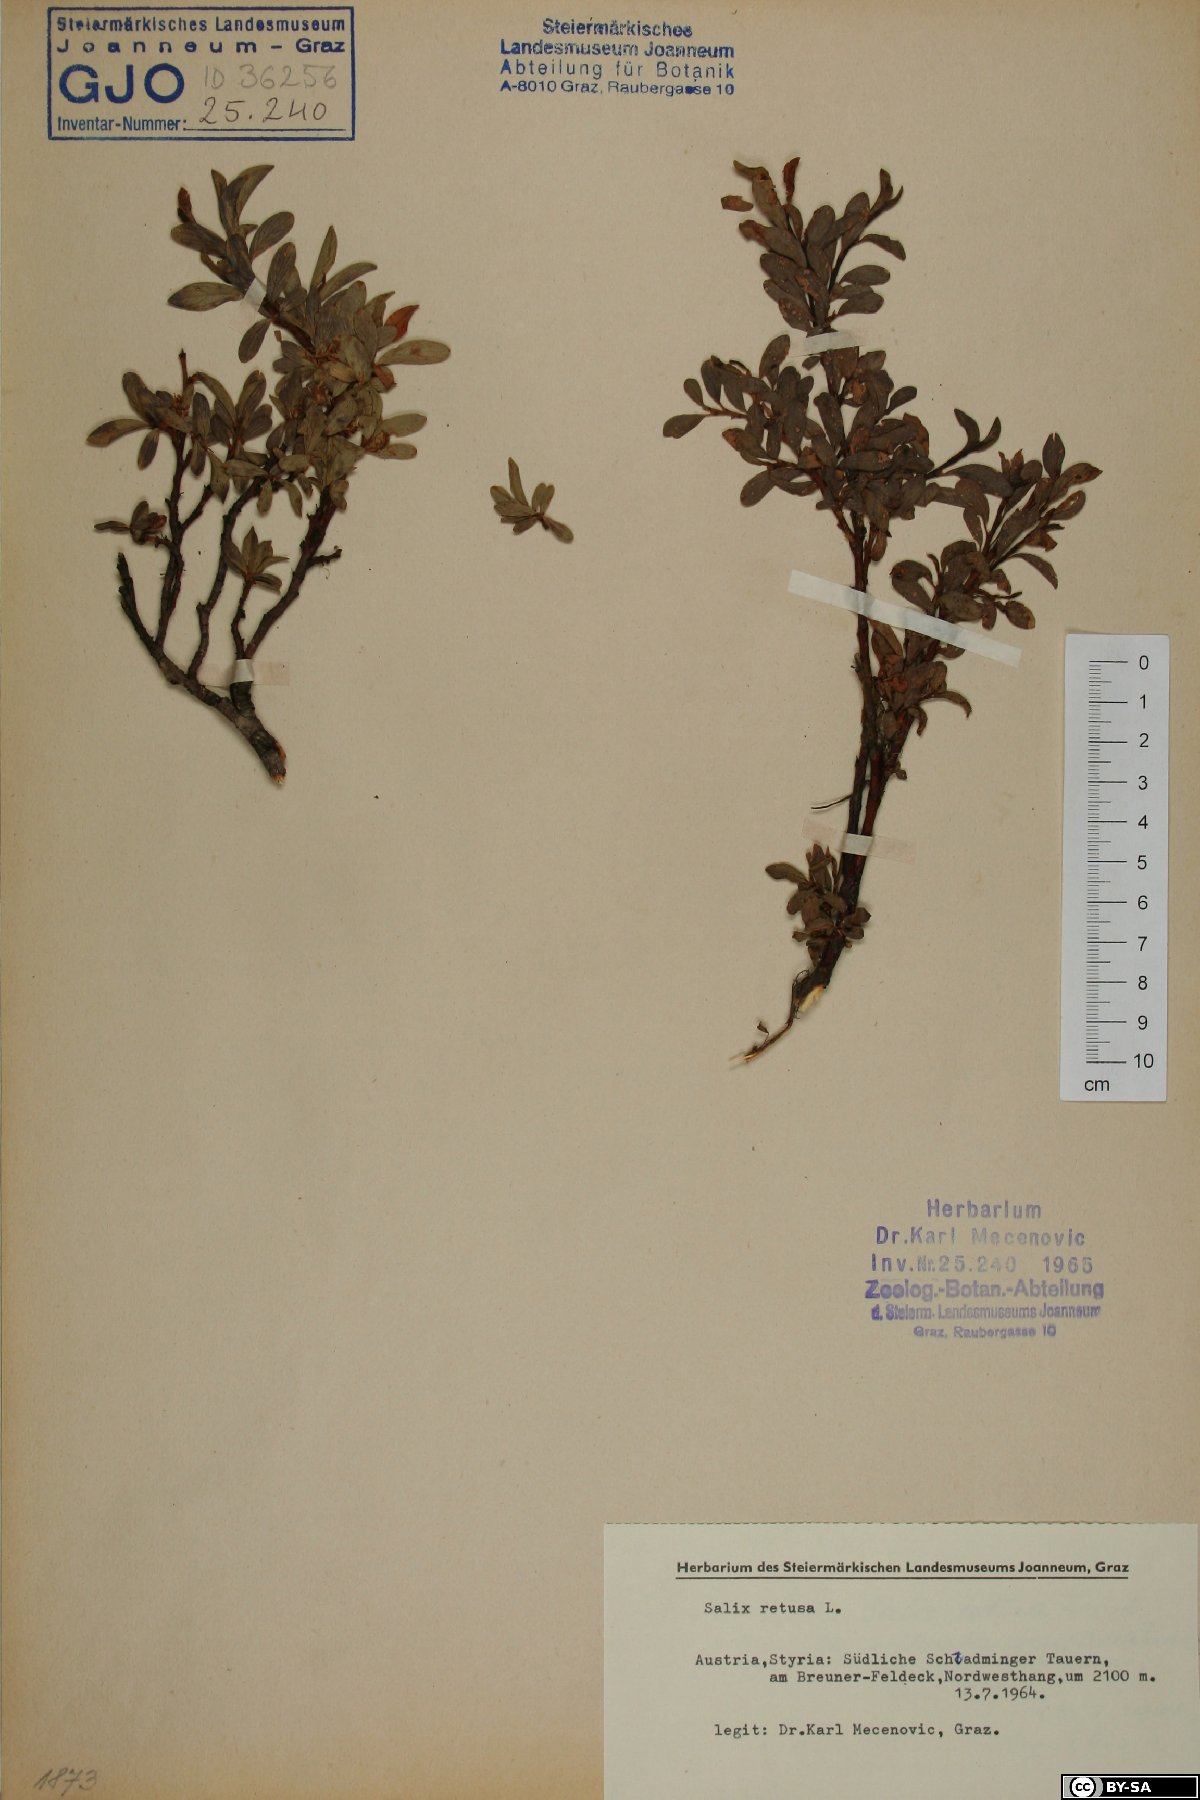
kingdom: Plantae
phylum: Tracheophyta
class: Magnoliopsida
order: Malpighiales
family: Salicaceae
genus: Salix
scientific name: Salix retusa
